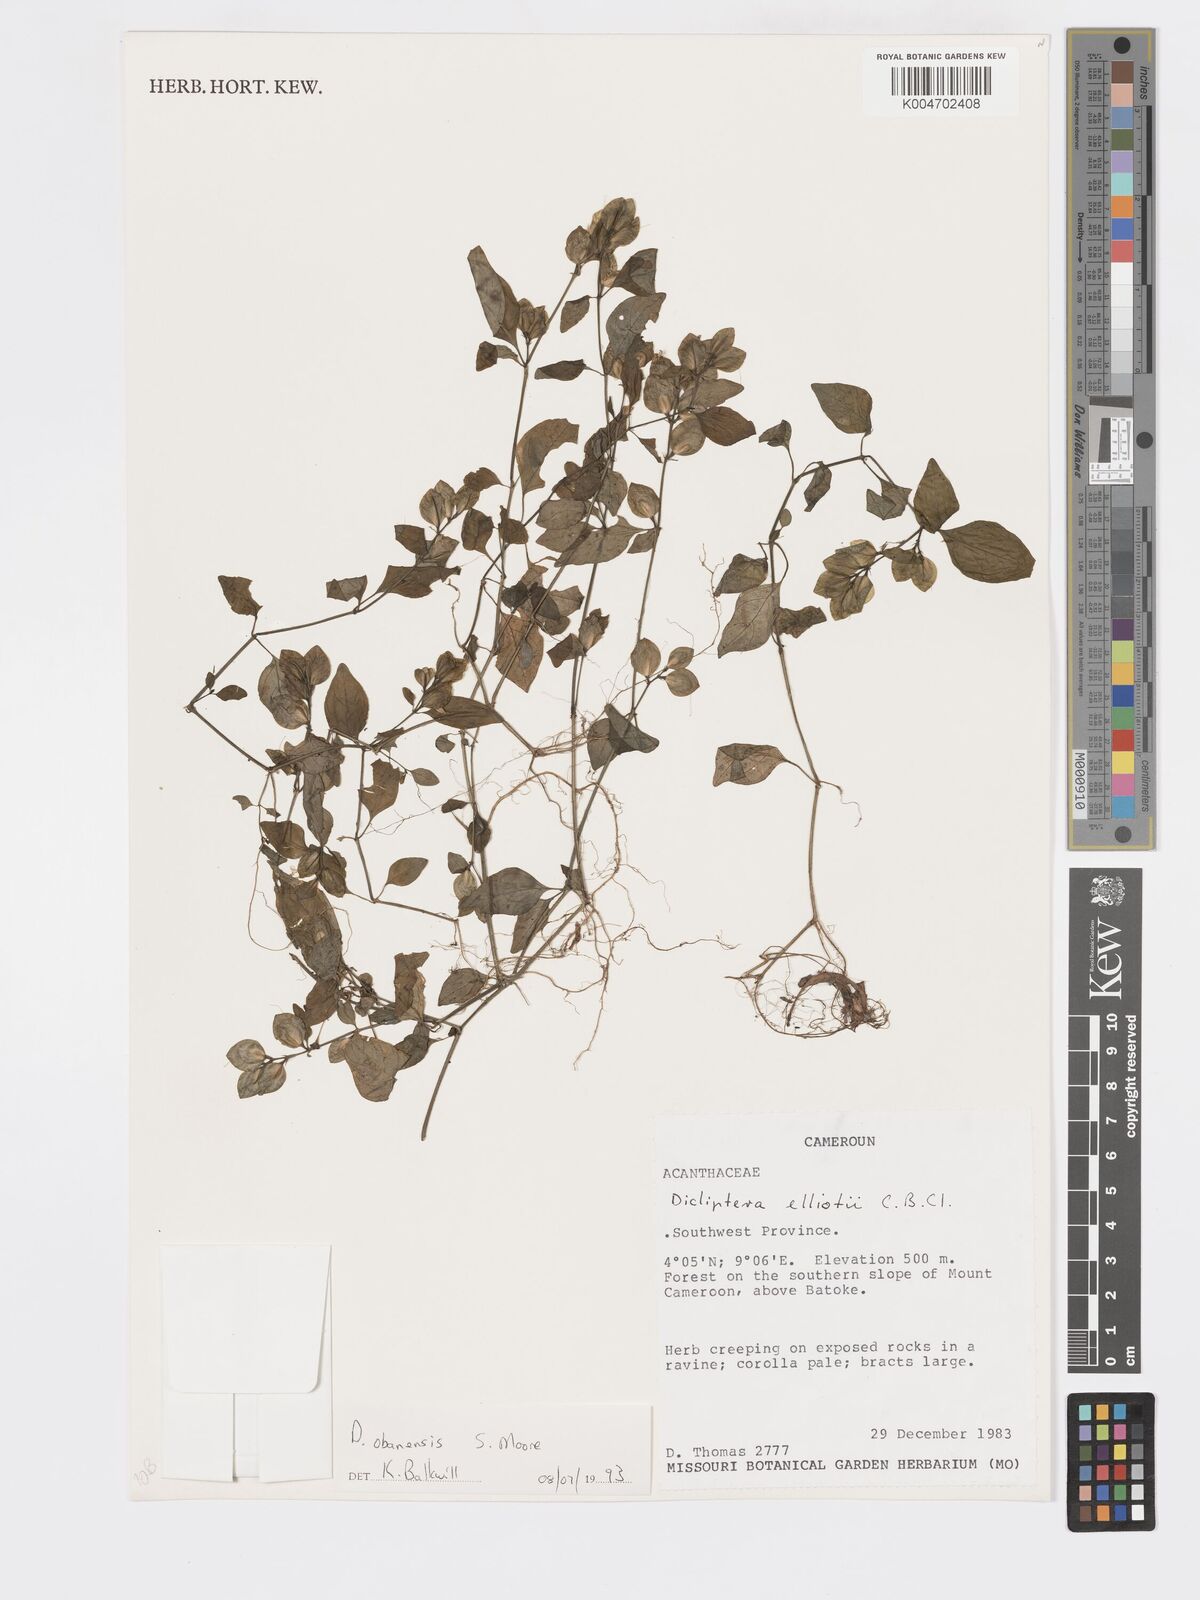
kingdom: Plantae
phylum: Tracheophyta
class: Magnoliopsida
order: Lamiales
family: Acanthaceae
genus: Dicliptera
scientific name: Dicliptera elliotii
